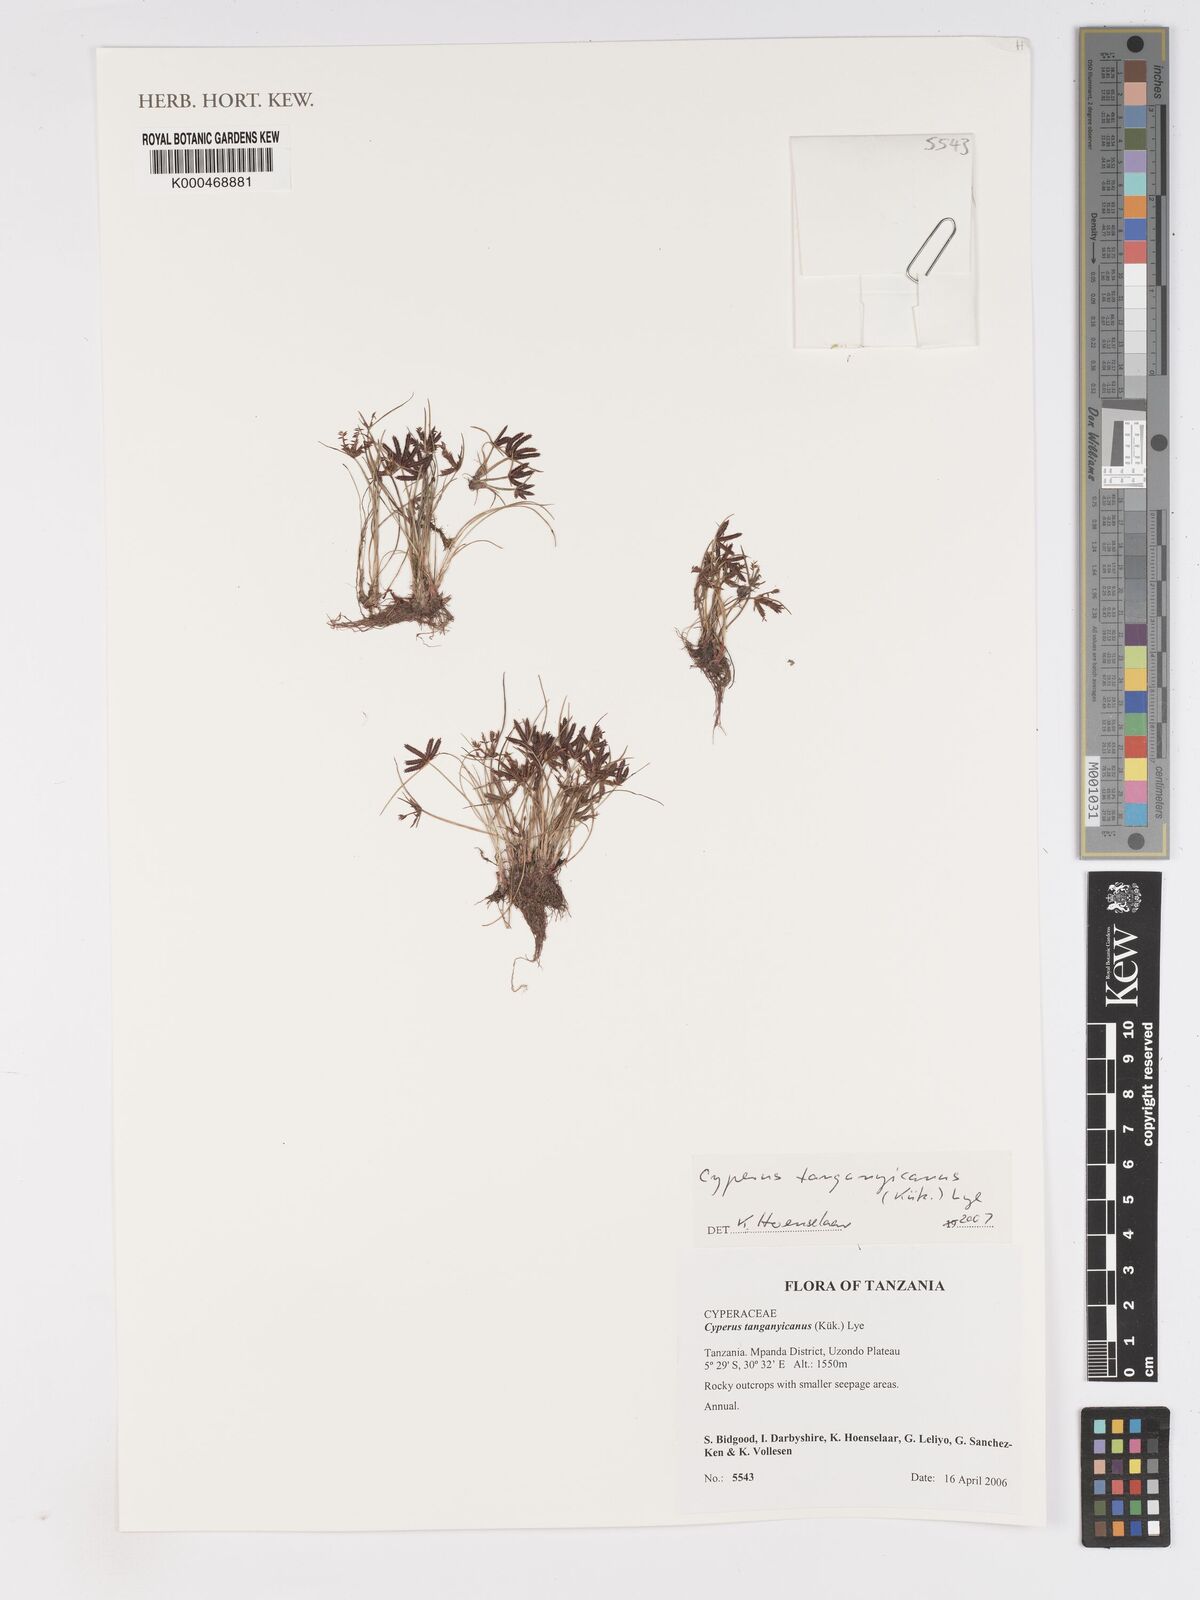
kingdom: Plantae
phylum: Tracheophyta
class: Liliopsida
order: Poales
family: Cyperaceae
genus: Cyperus
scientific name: Cyperus semitrifidus
